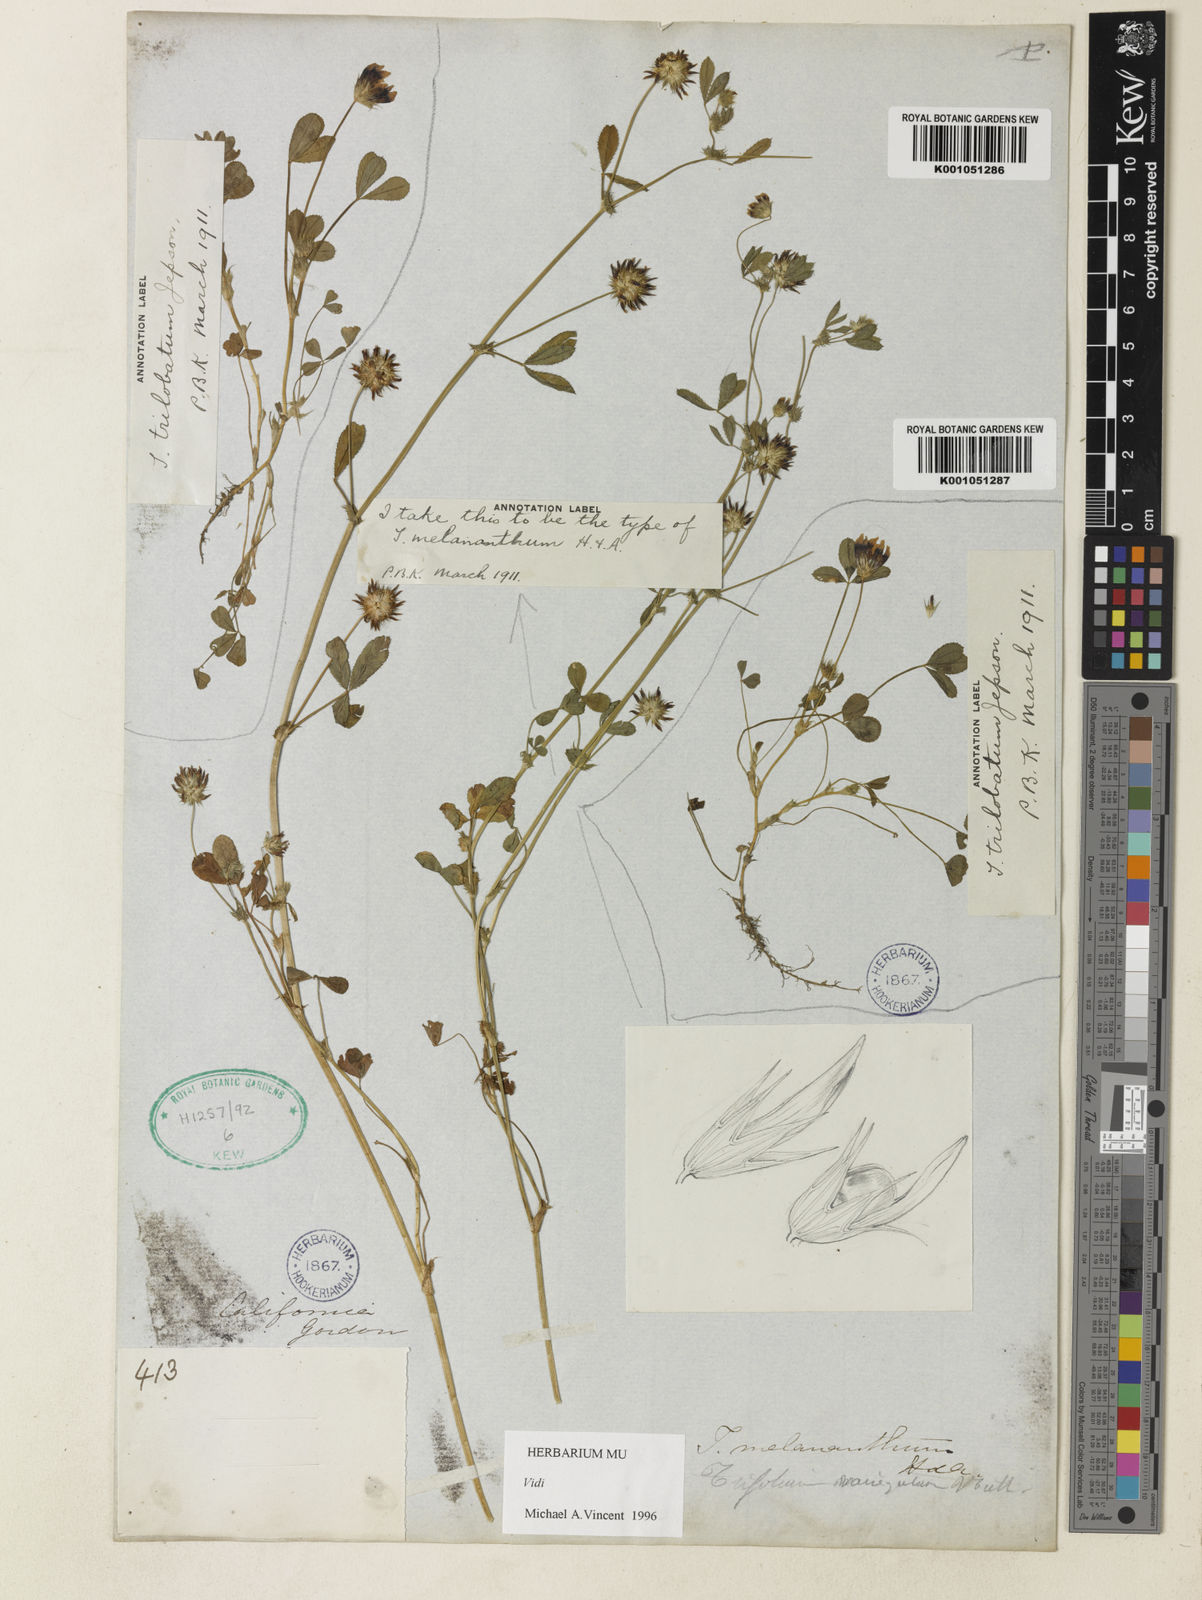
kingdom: Plantae
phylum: Tracheophyta
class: Magnoliopsida
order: Fabales
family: Fabaceae
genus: Trifolium
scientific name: Trifolium variegatum
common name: Whitetip clover
